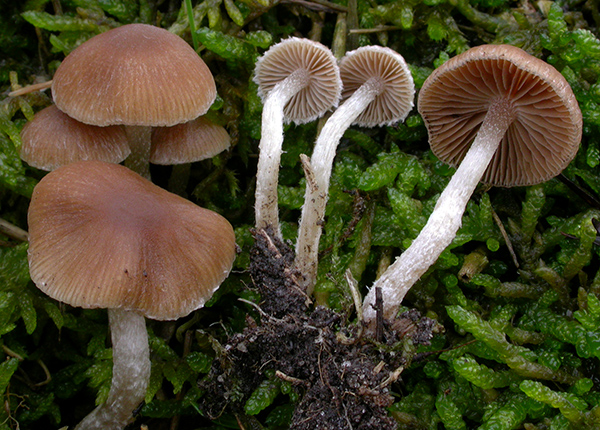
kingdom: Fungi
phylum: Basidiomycota
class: Agaricomycetes
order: Agaricales
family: Psathyrellaceae
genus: Psathyrella
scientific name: Psathyrella umbrina
